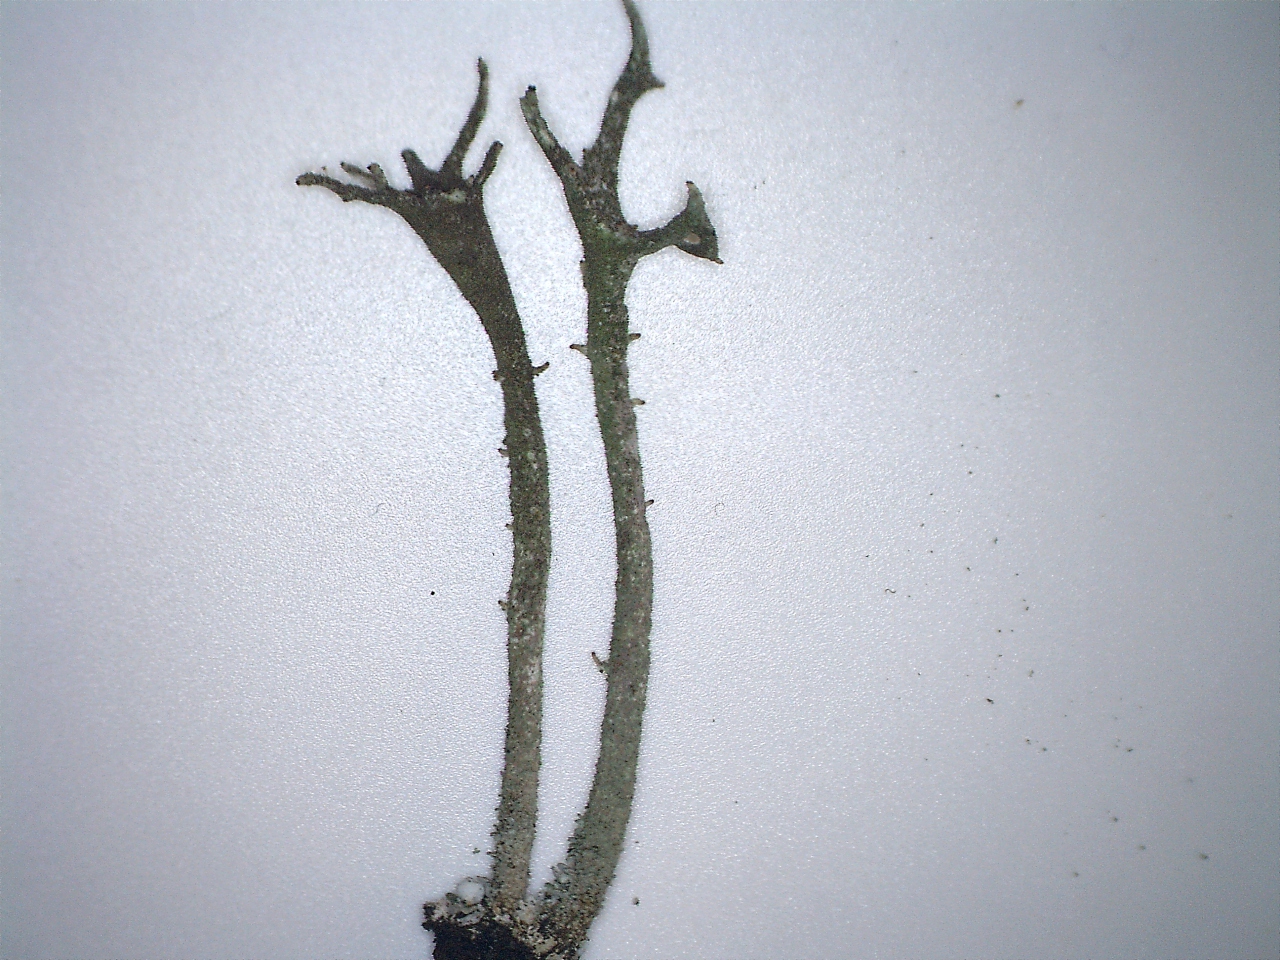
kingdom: Fungi
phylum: Ascomycota
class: Lecanoromycetes
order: Lecanorales
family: Cladoniaceae
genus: Cladonia
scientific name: Cladonia rei
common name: grumset bægerlav
